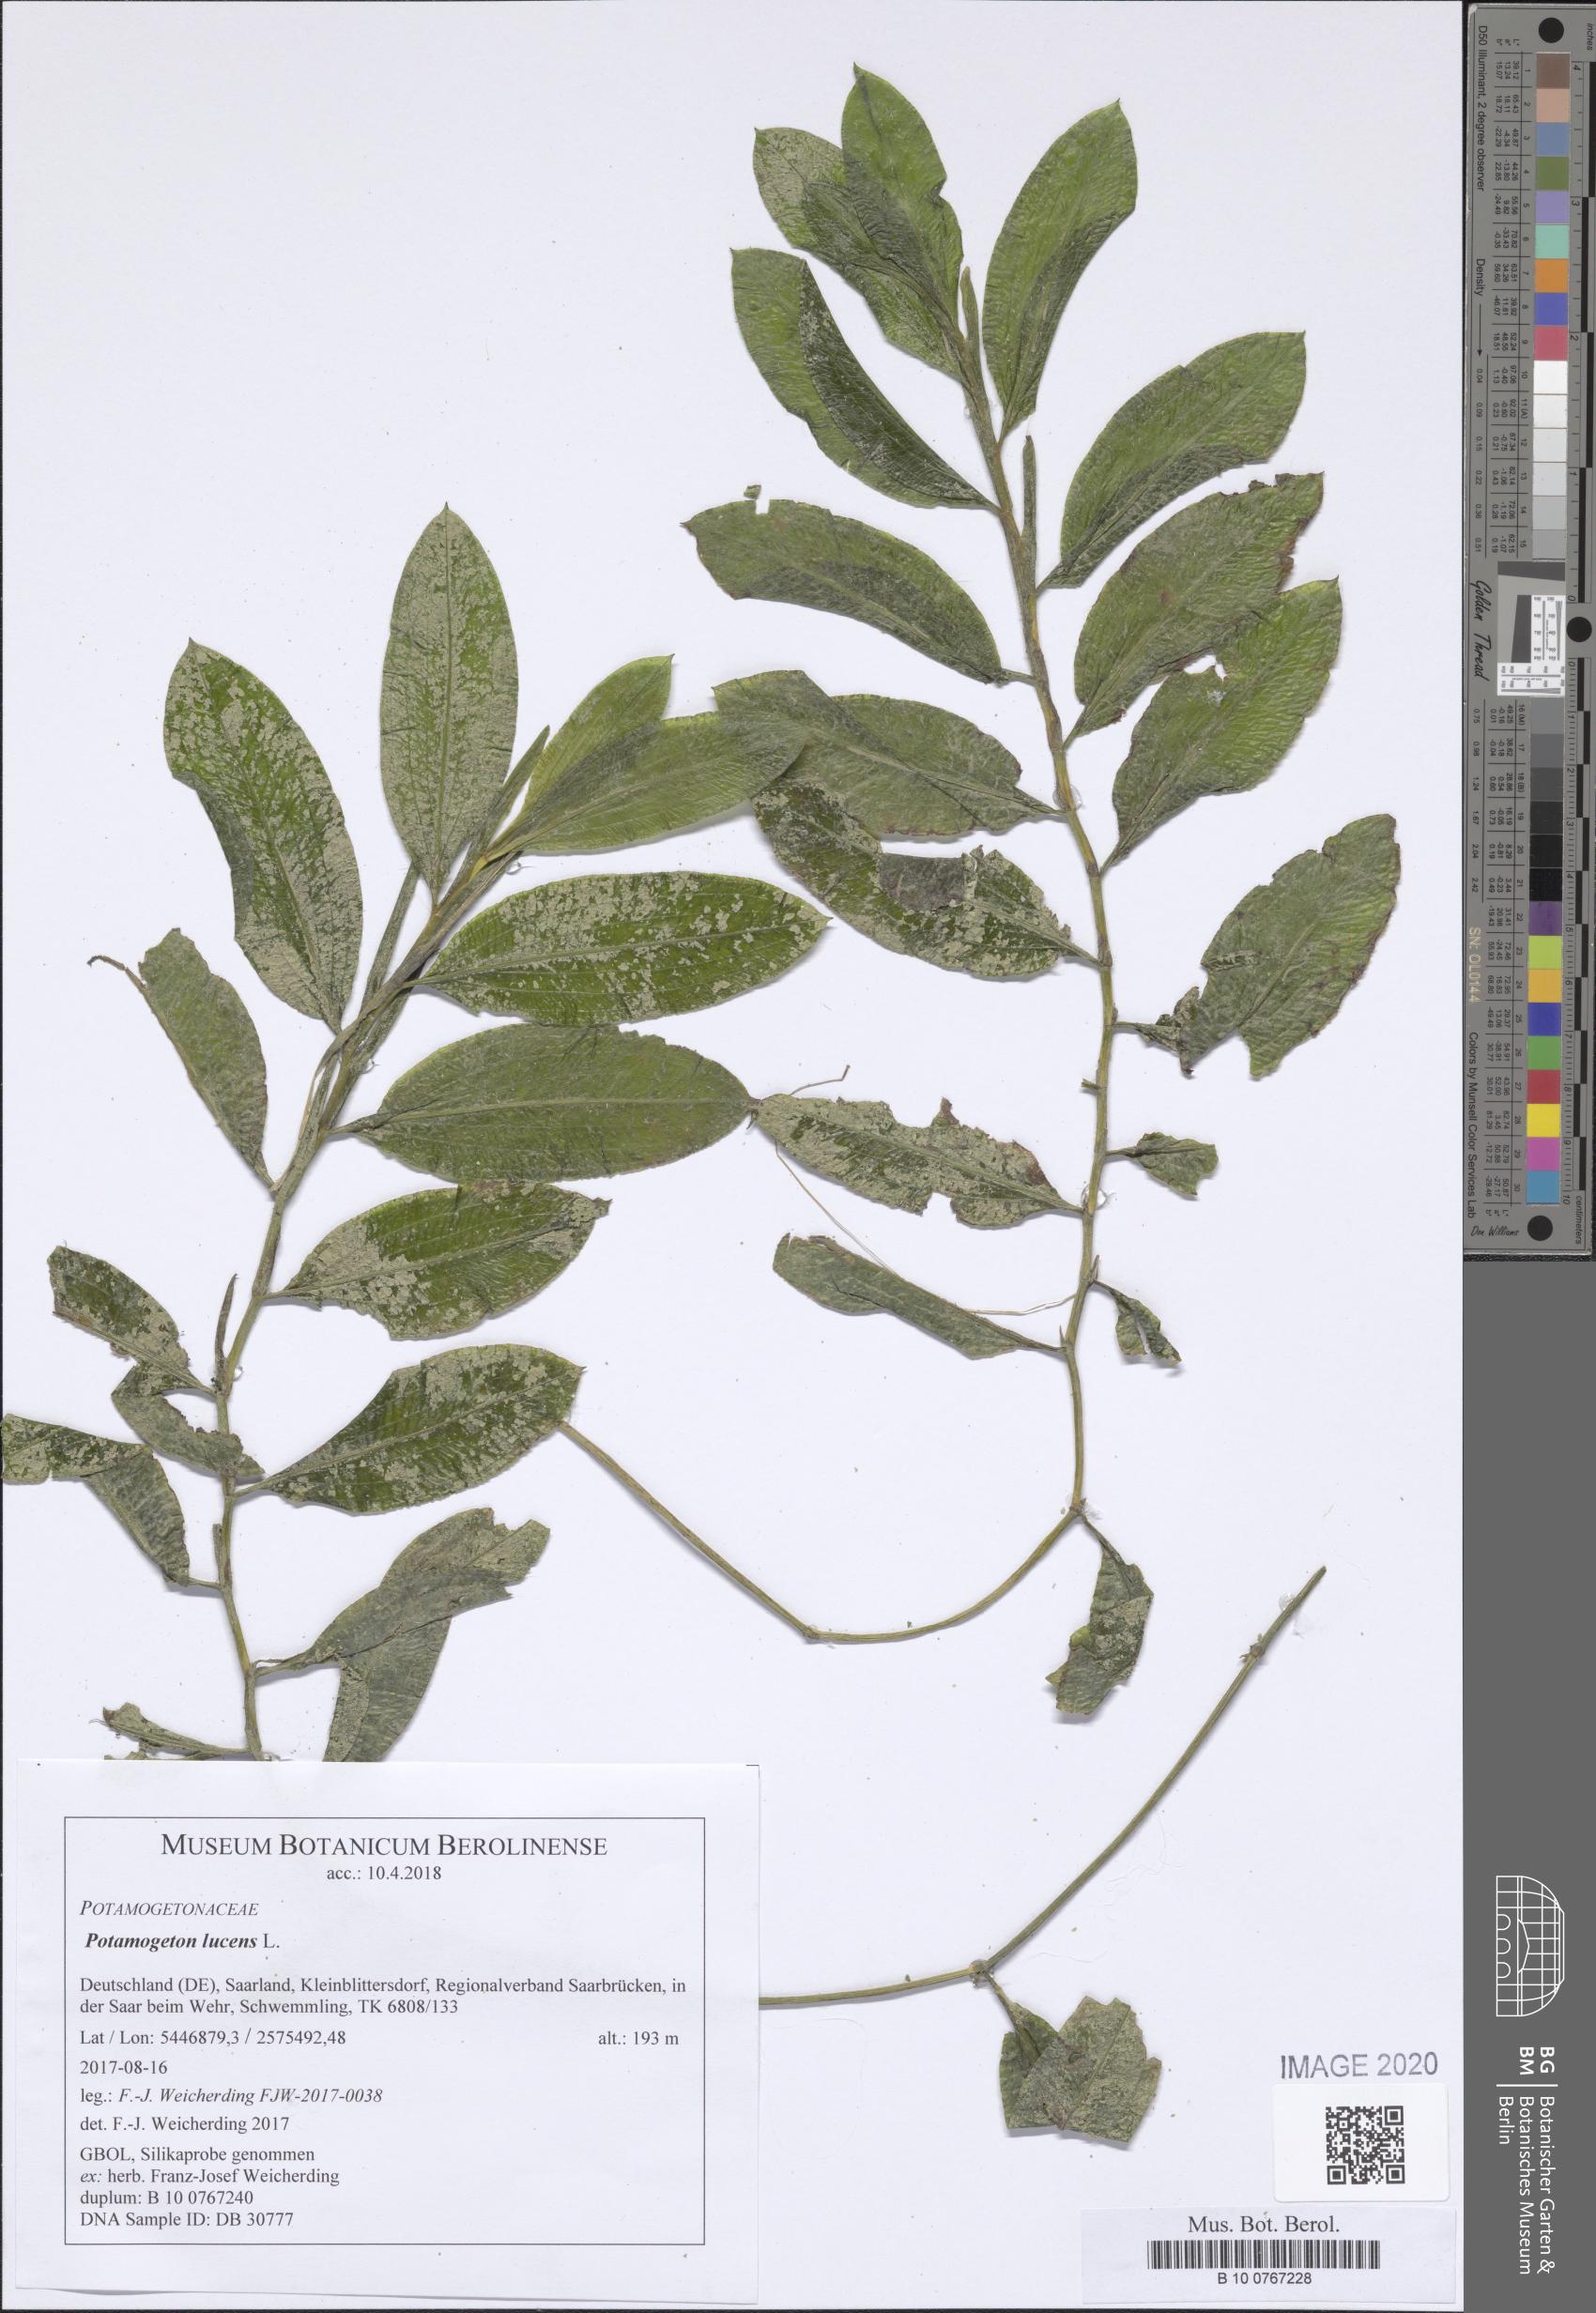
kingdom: Plantae
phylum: Tracheophyta
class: Liliopsida
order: Alismatales
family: Potamogetonaceae
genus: Potamogeton
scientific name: Potamogeton lucens
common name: Shining pondweed
